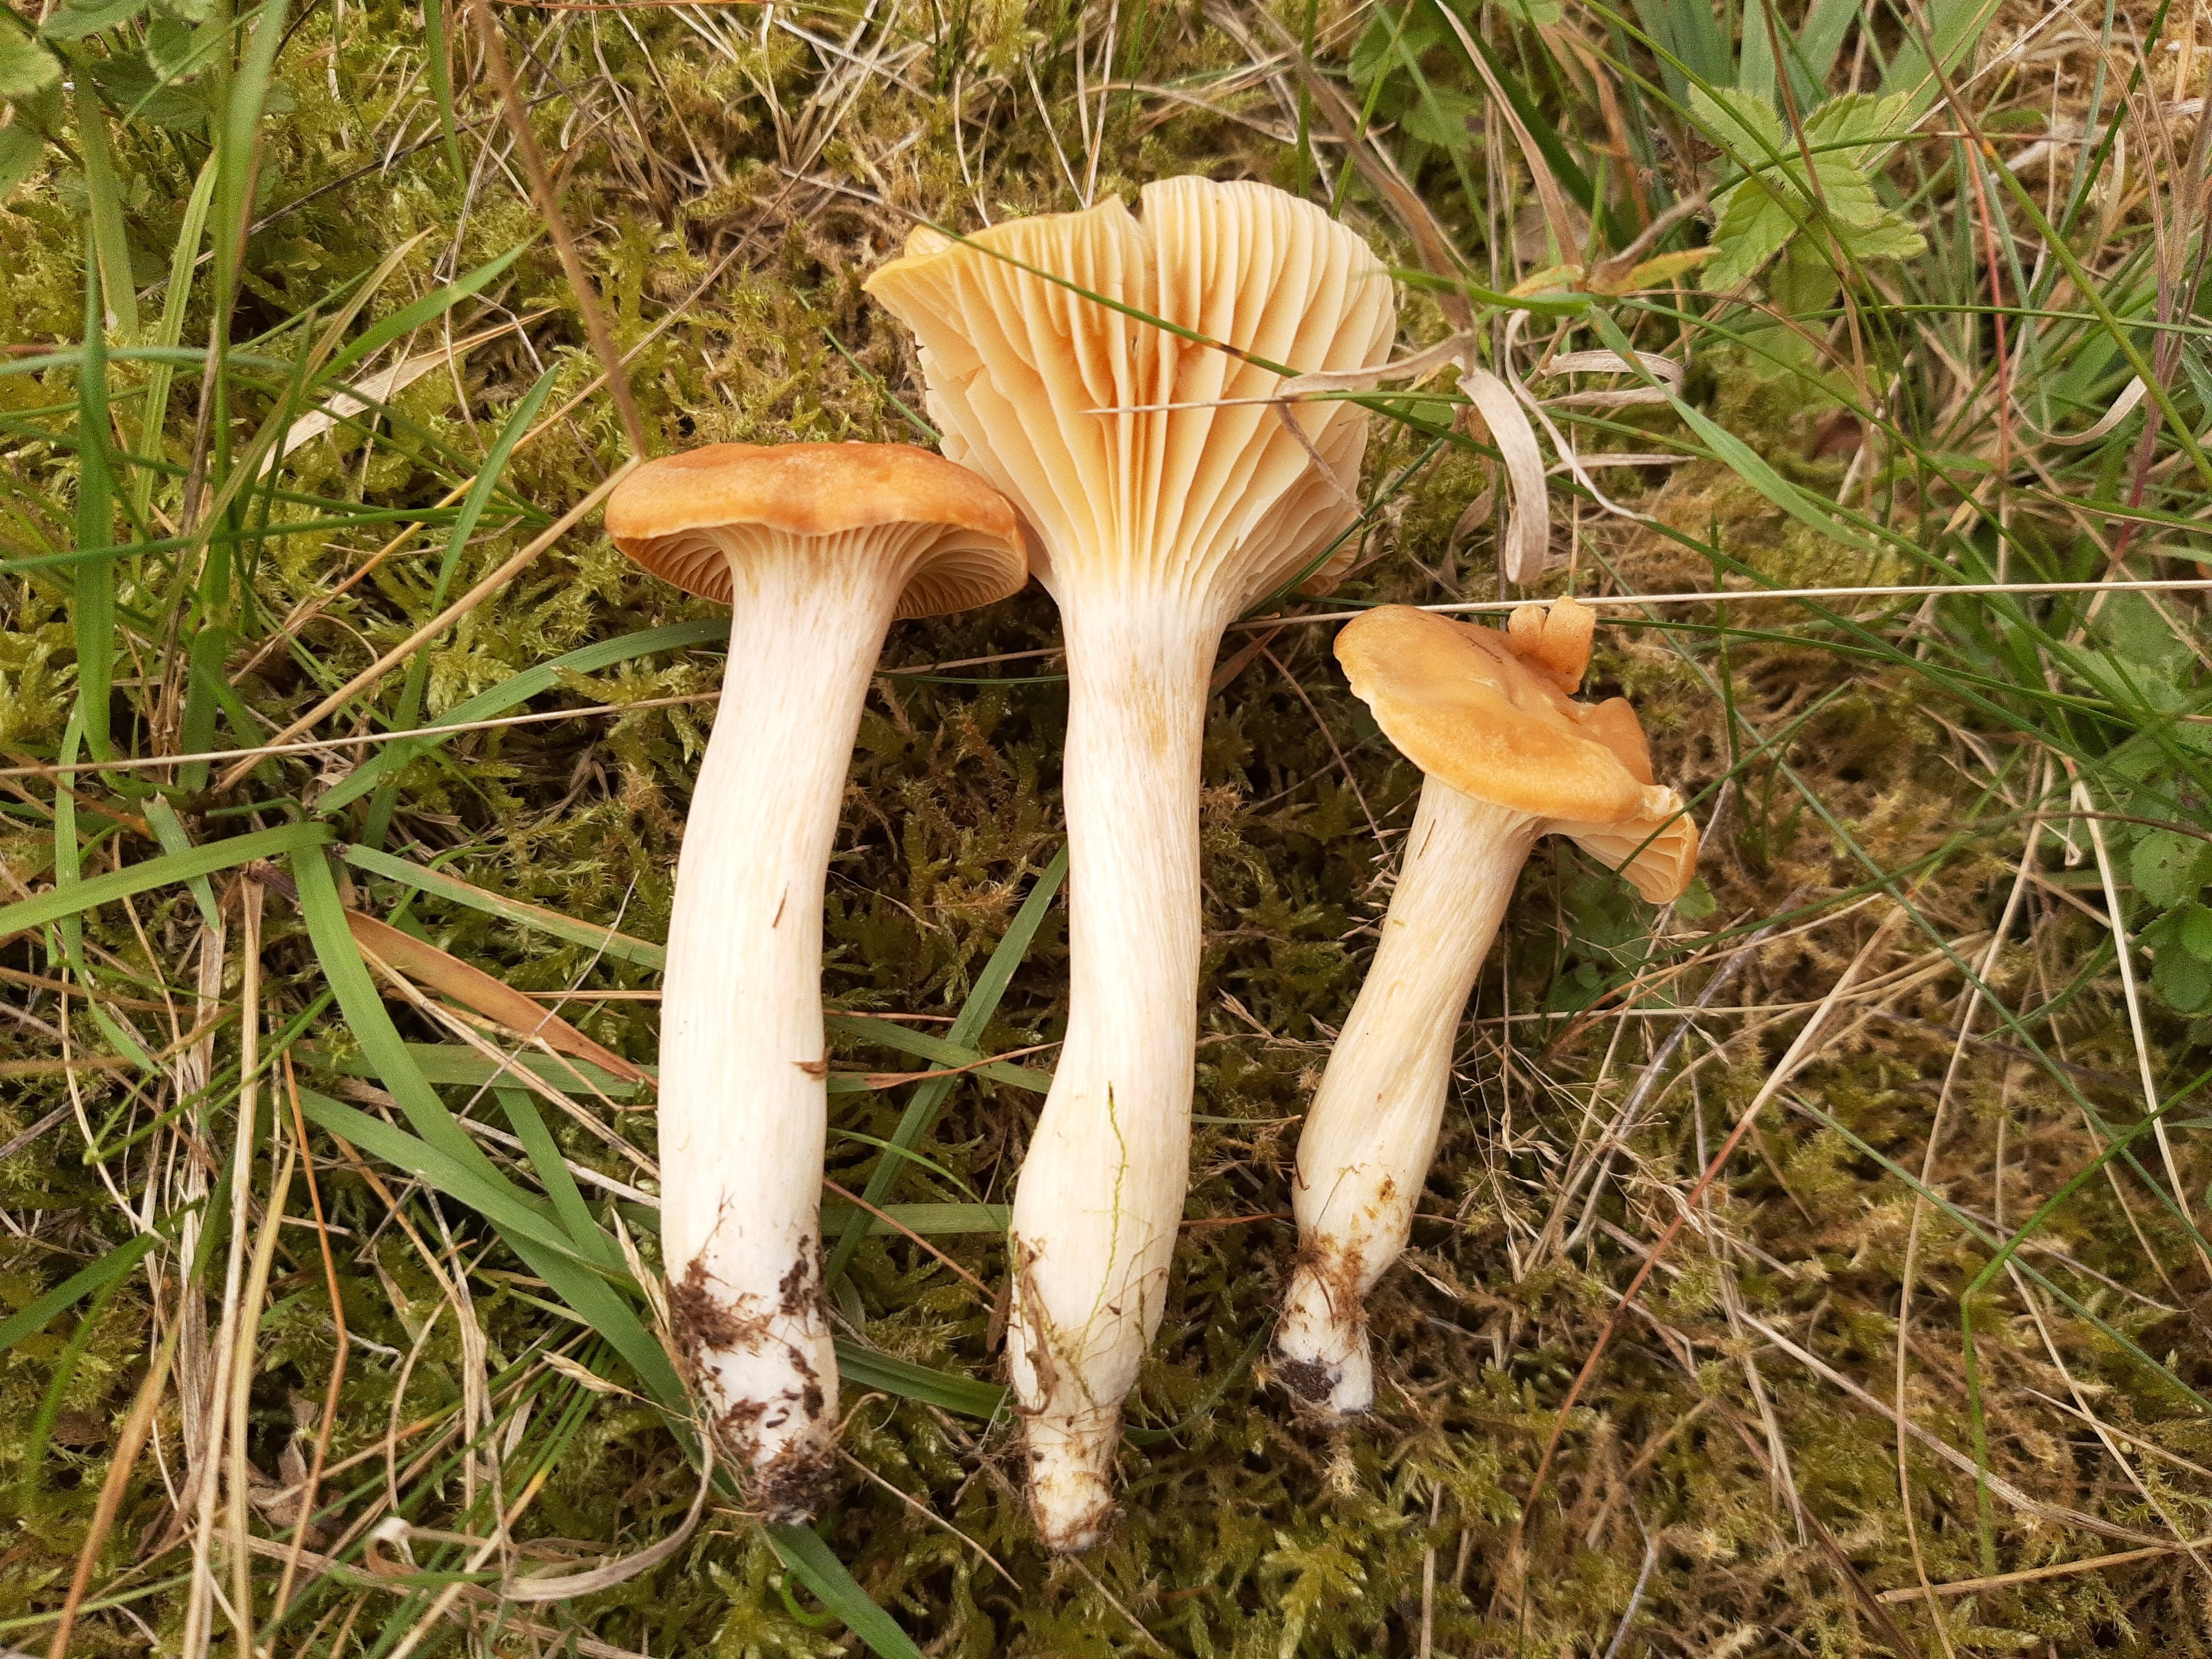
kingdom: Fungi
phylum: Basidiomycota
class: Agaricomycetes
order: Agaricales
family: Hygrophoraceae
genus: Cuphophyllus
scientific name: Cuphophyllus pratensis
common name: eng-vokshat
